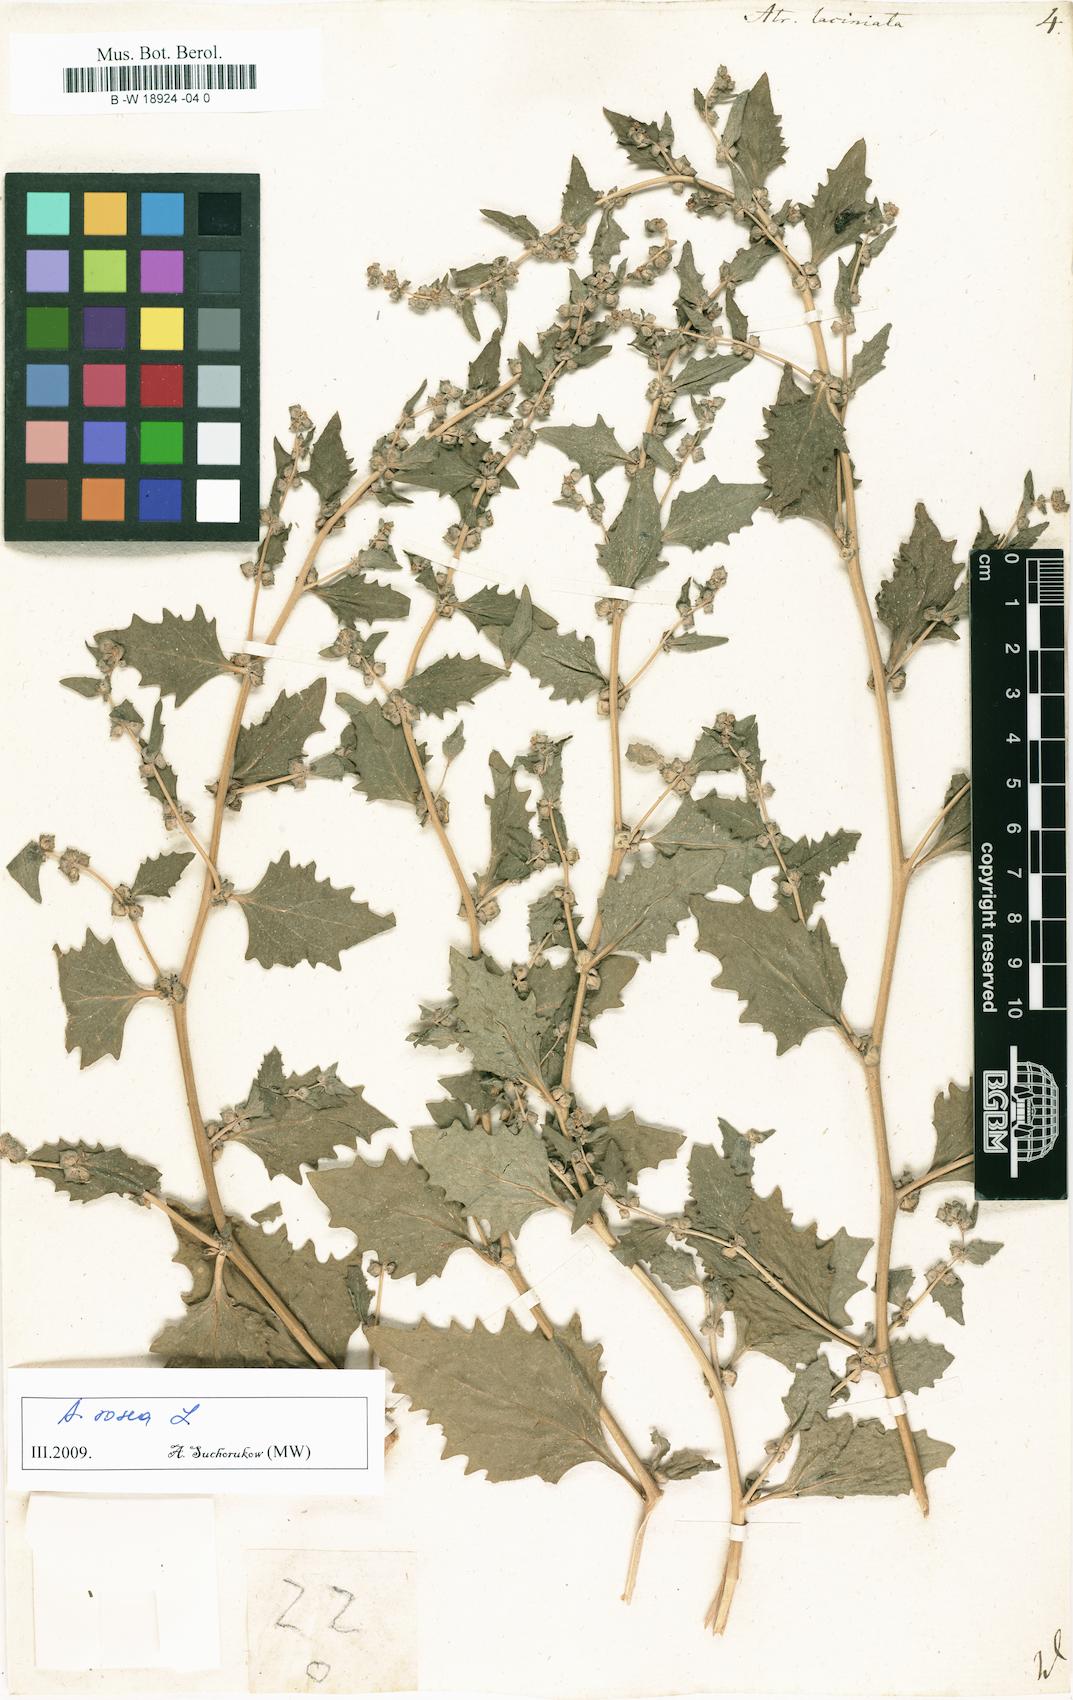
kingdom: Plantae
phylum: Tracheophyta
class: Magnoliopsida
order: Caryophyllales
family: Amaranthaceae
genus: Atriplex
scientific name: Atriplex laciniata
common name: Frosted orache
